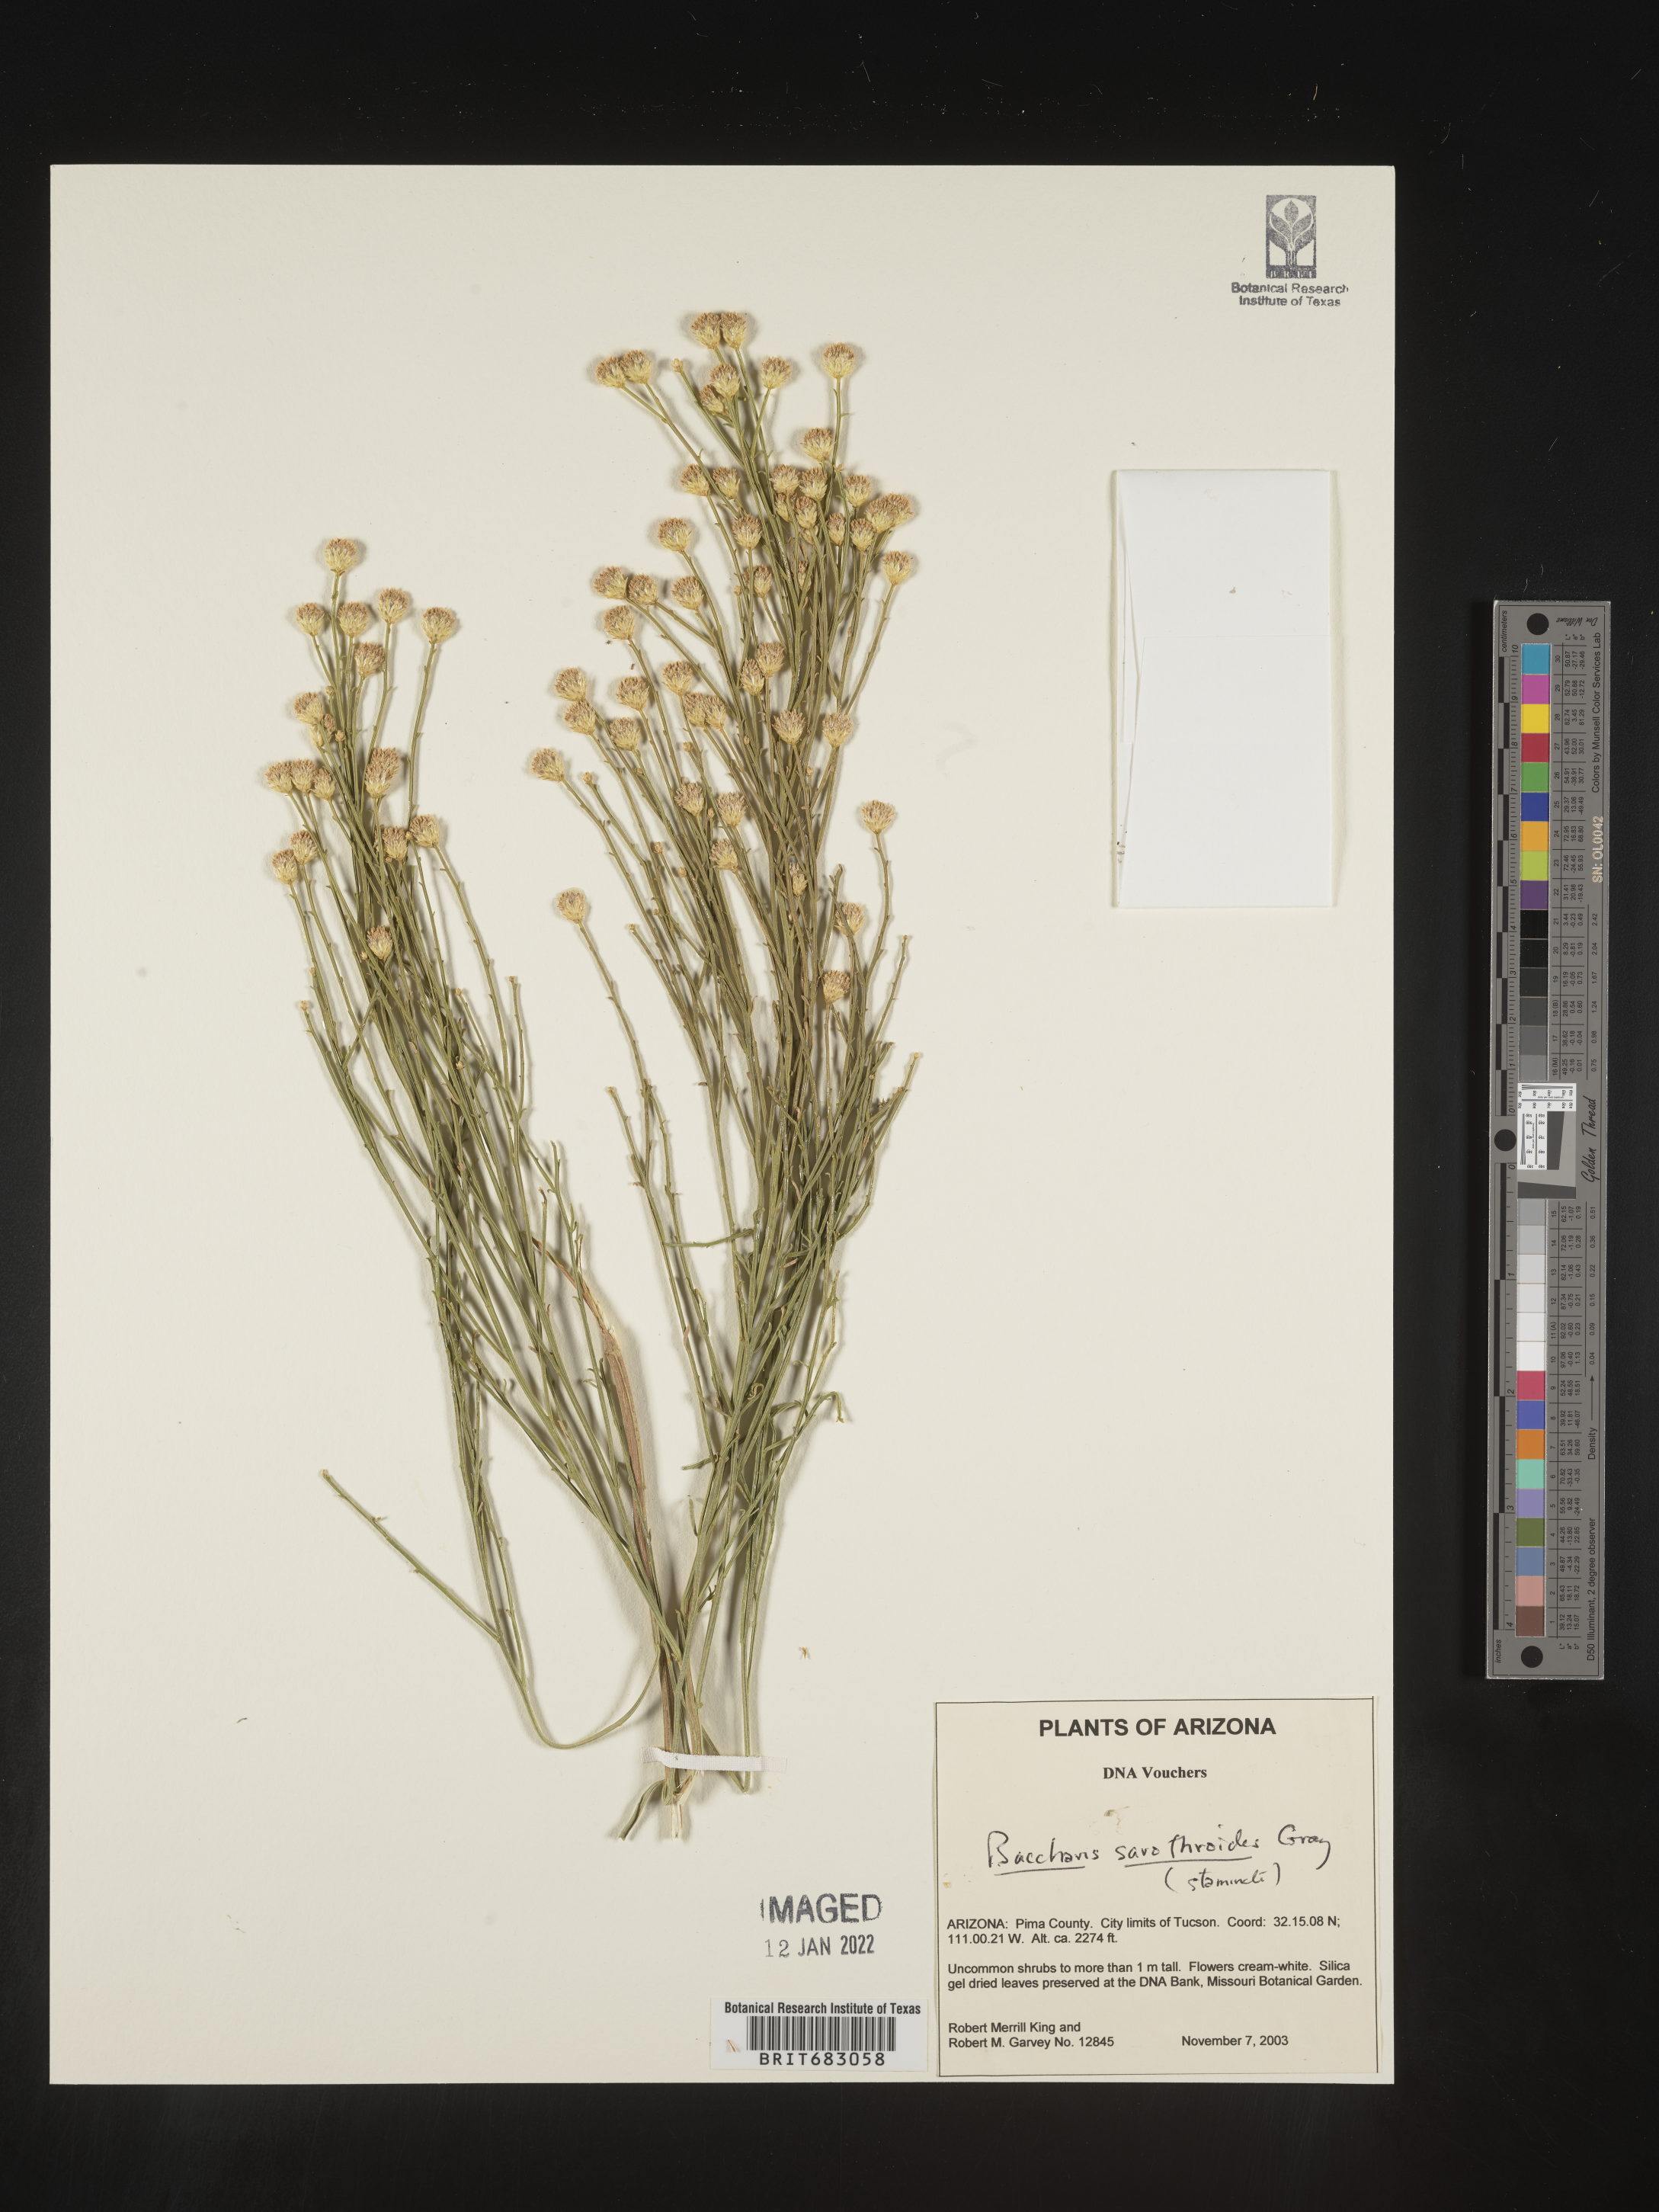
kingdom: Plantae
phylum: Tracheophyta
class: Magnoliopsida
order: Asterales
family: Asteraceae
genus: Baccharis
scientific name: Baccharis sarothroides
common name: Desert-broom
